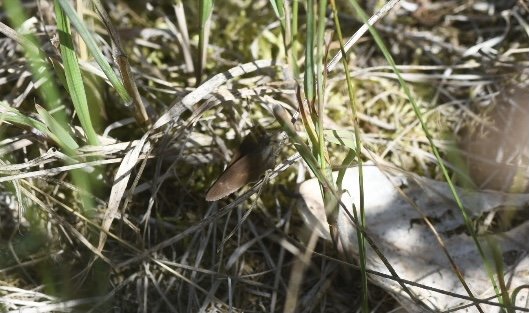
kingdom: Animalia
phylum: Arthropoda
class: Insecta
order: Lepidoptera
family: Hesperiidae
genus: Polites
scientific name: Polites egeremet
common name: Northern Broken-Dash
